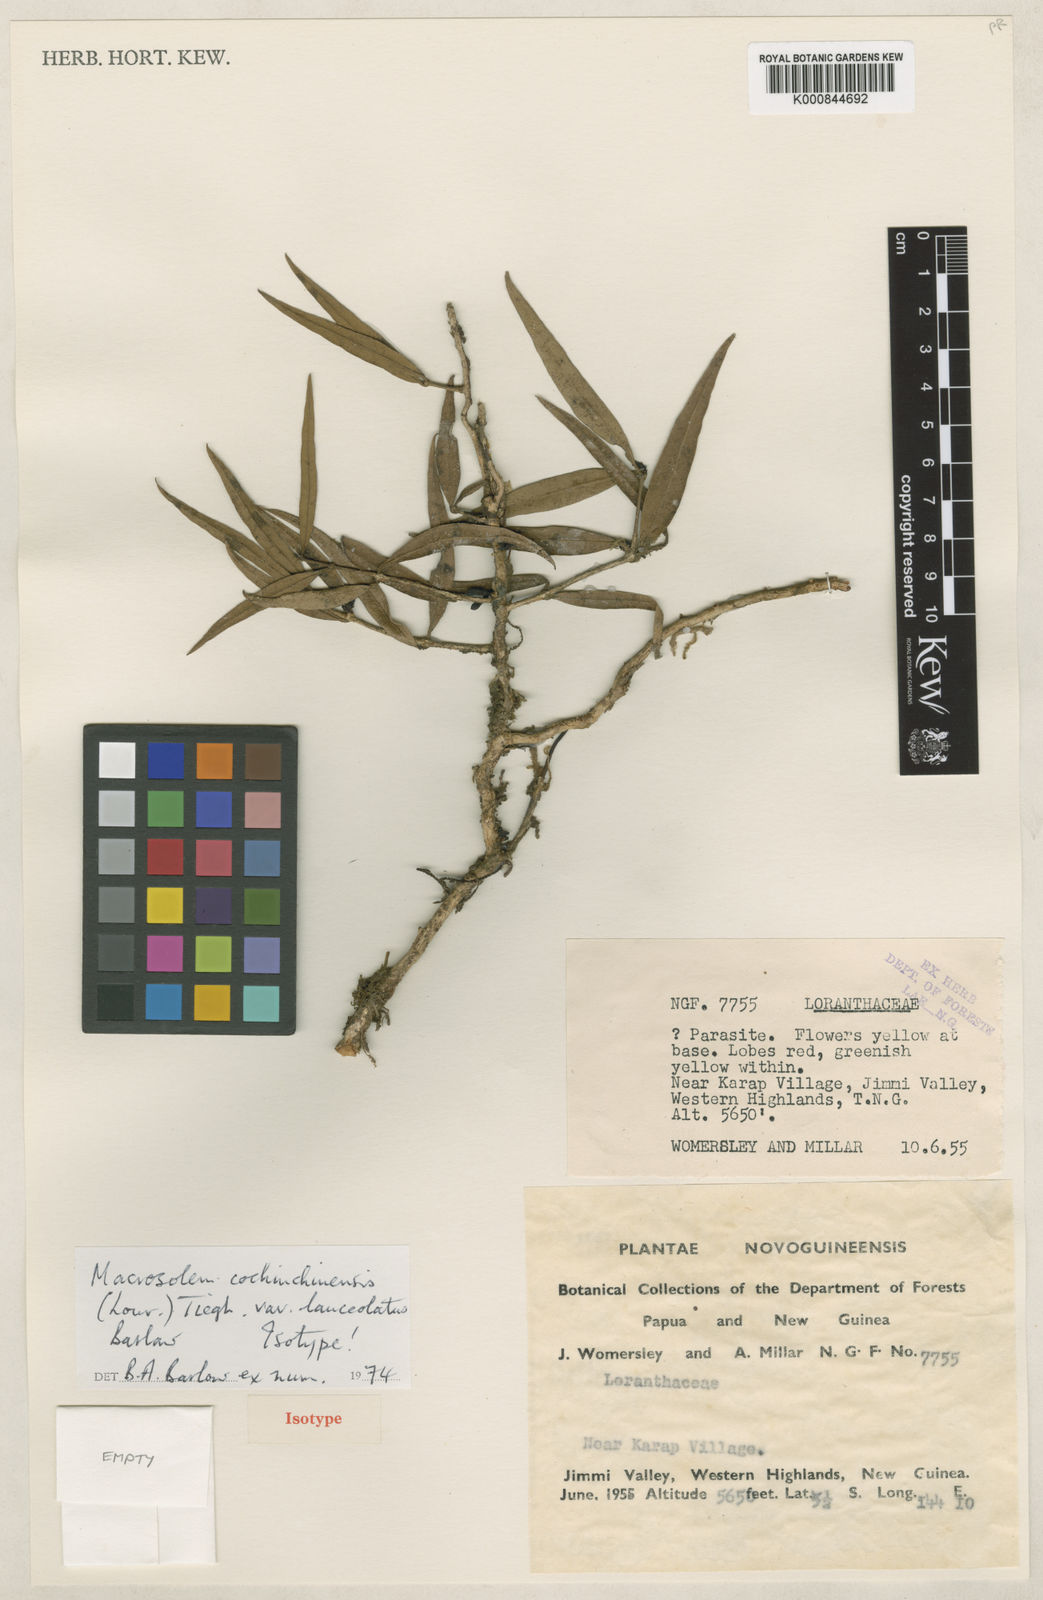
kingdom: Plantae
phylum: Tracheophyta
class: Magnoliopsida
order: Santalales
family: Loranthaceae
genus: Macrosolen
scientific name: Macrosolen
